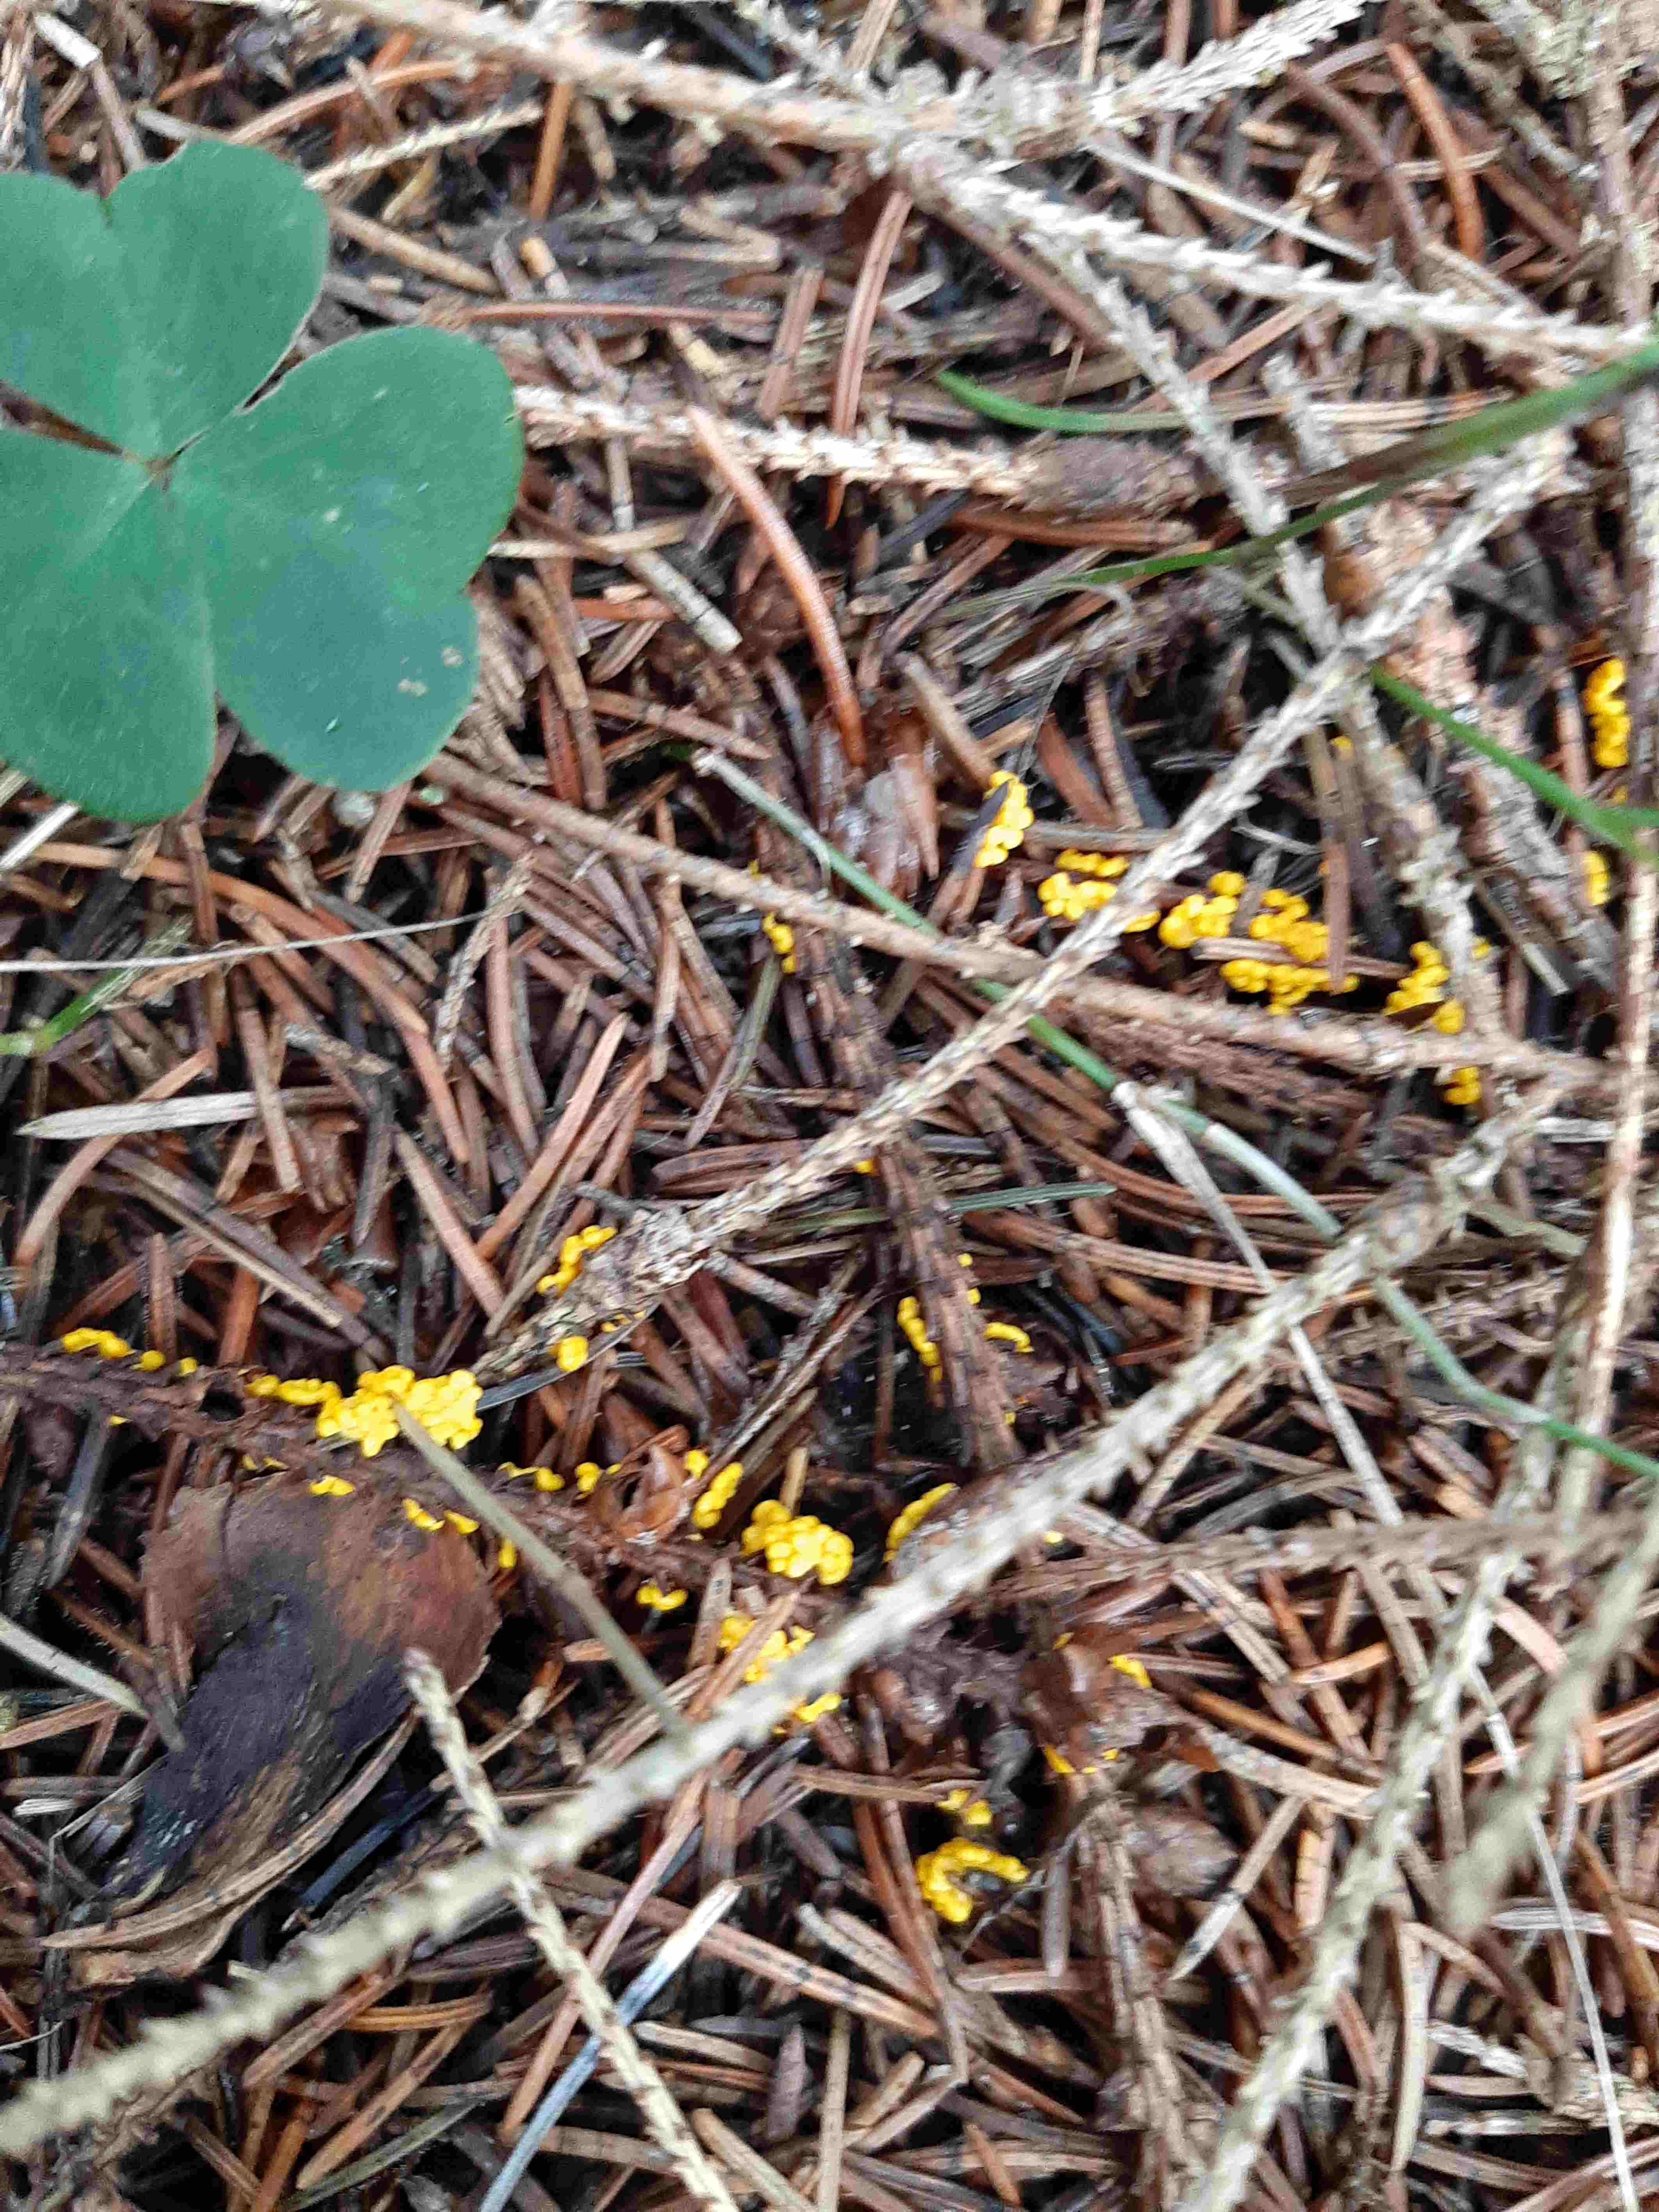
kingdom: Protozoa
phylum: Mycetozoa
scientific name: Mycetozoa
